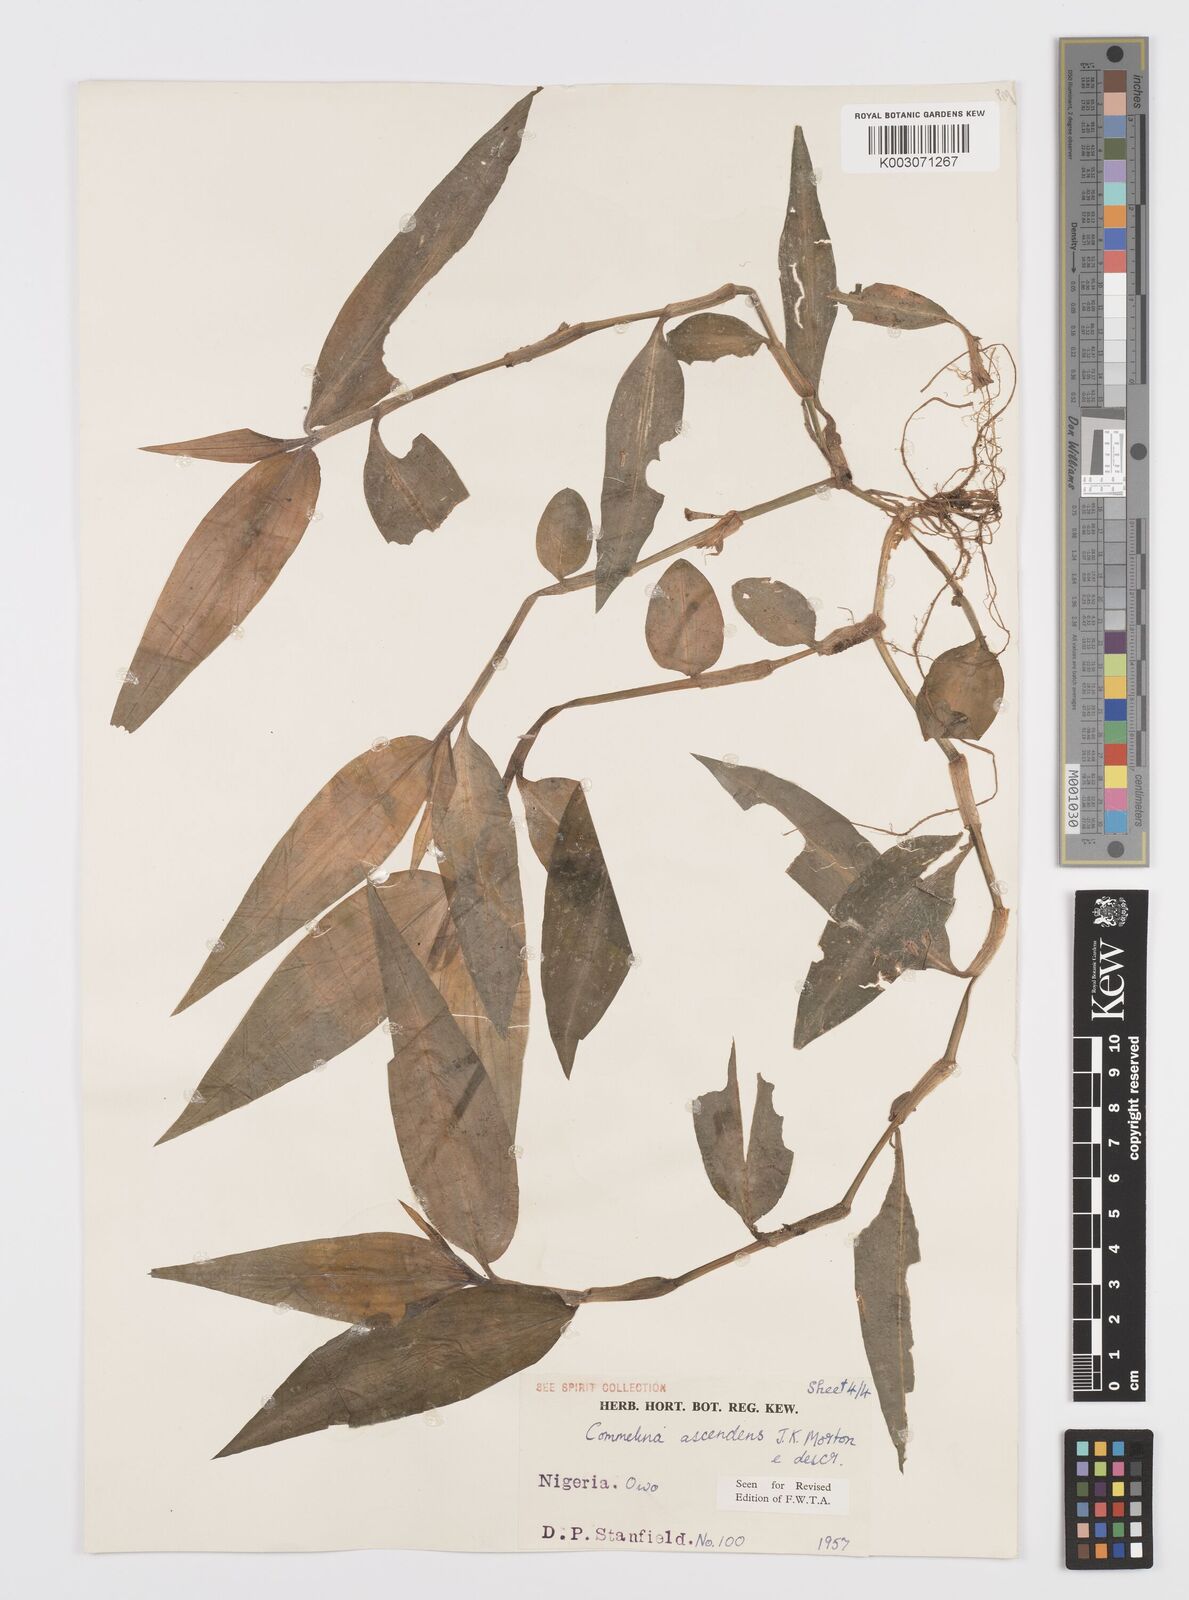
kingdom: Plantae
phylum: Tracheophyta
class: Liliopsida
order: Commelinales
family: Commelinaceae
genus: Commelina
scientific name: Commelina ascendens
